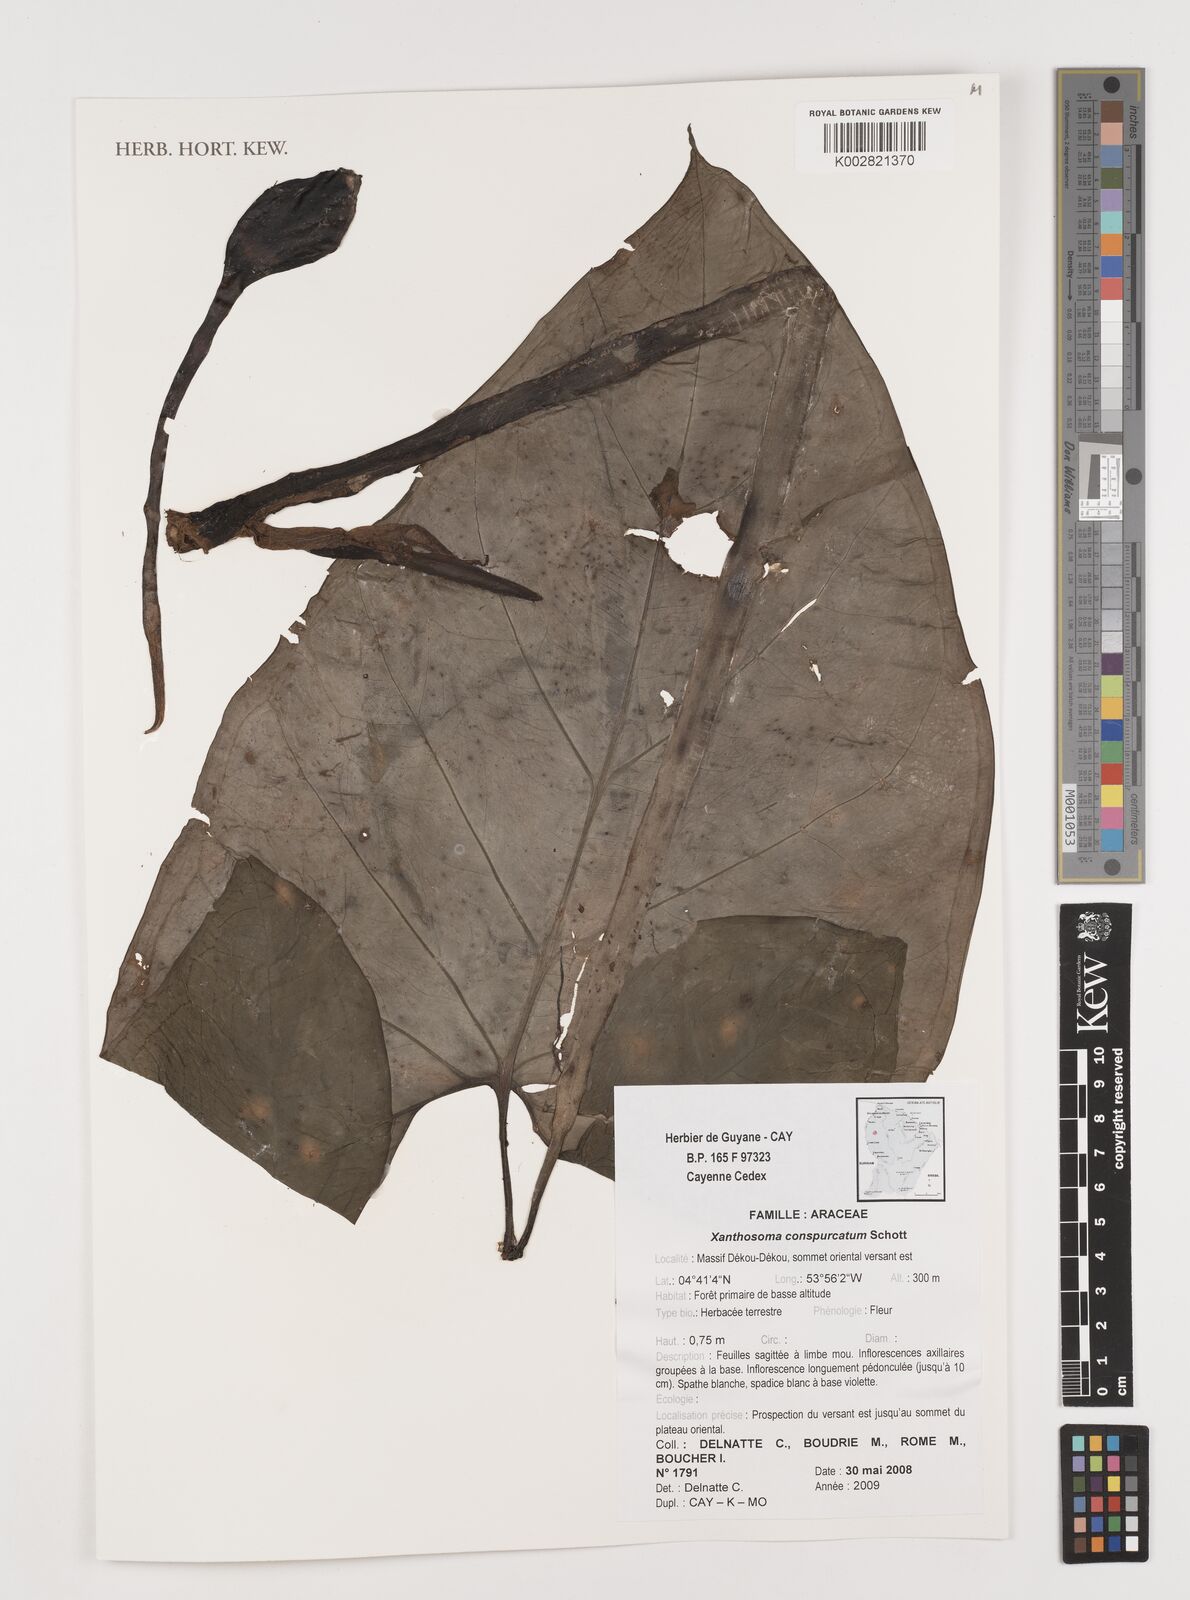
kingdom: Plantae
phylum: Tracheophyta
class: Liliopsida
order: Alismatales
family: Araceae
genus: Xanthosoma
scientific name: Xanthosoma conspurcatum
